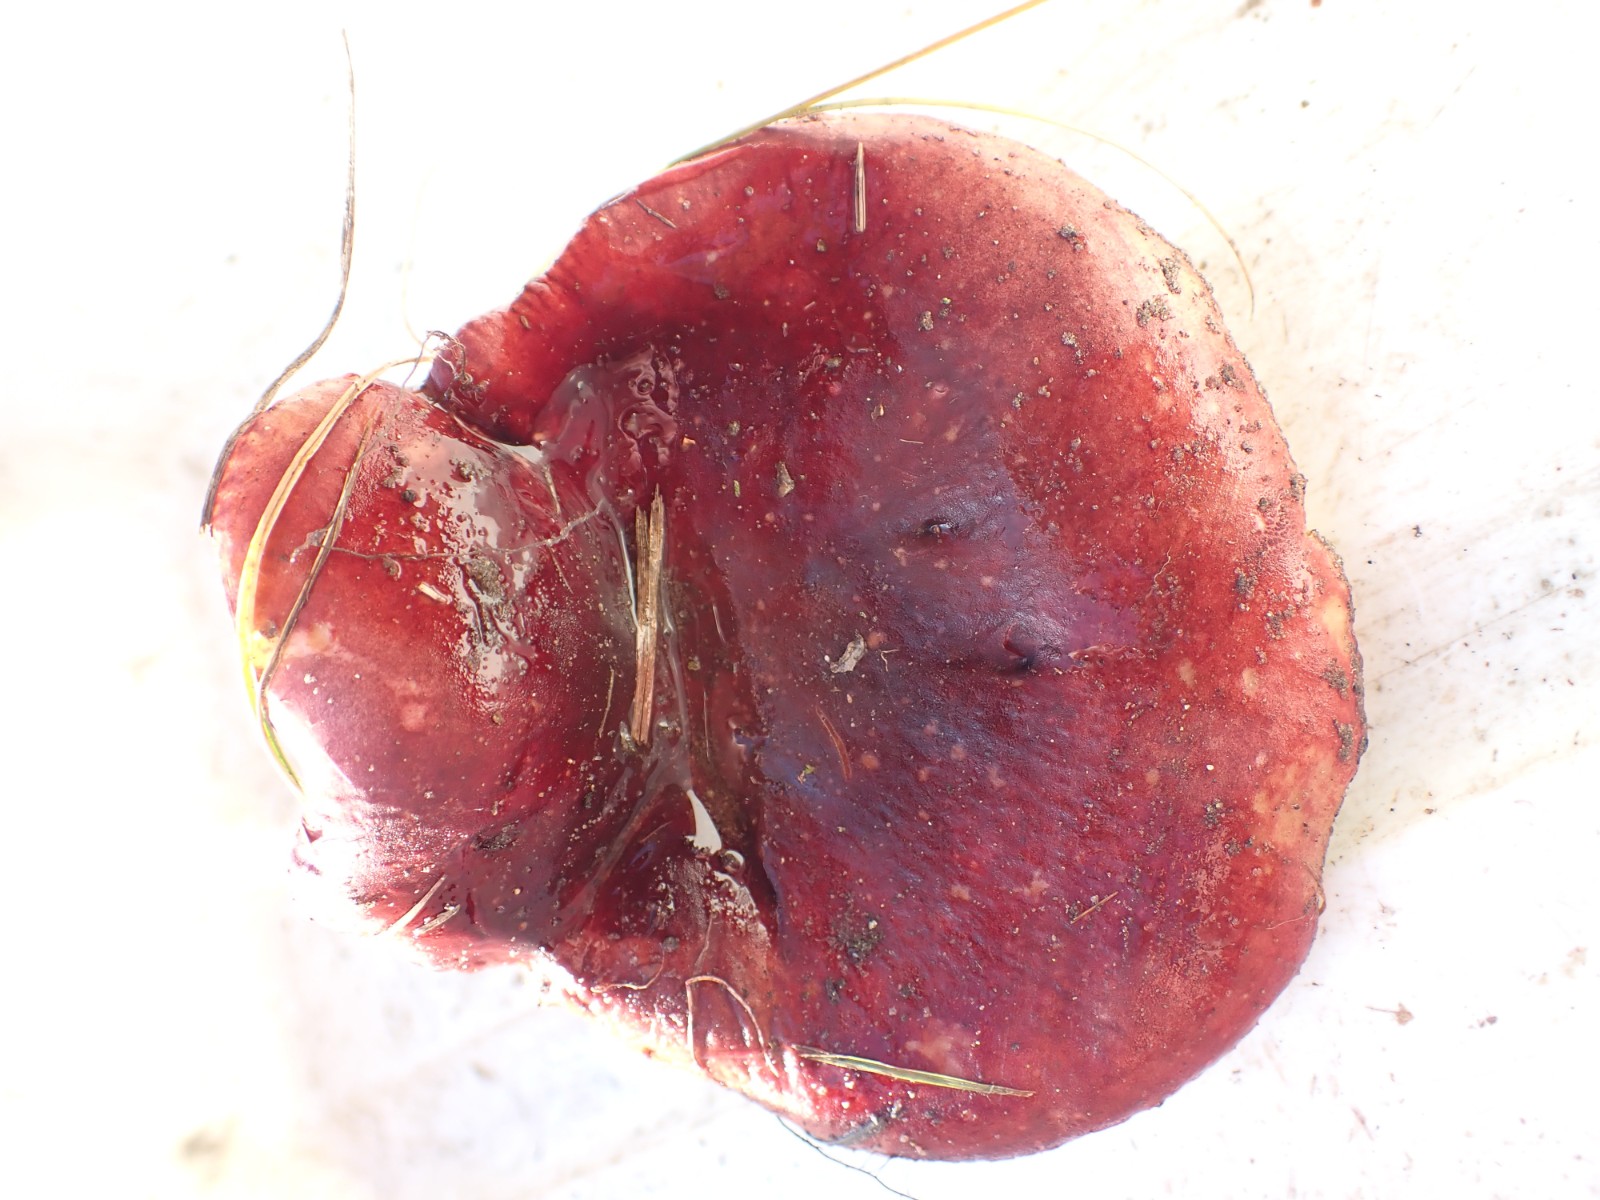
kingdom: Fungi
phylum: Basidiomycota
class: Agaricomycetes
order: Russulales
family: Russulaceae
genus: Russula
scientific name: Russula
